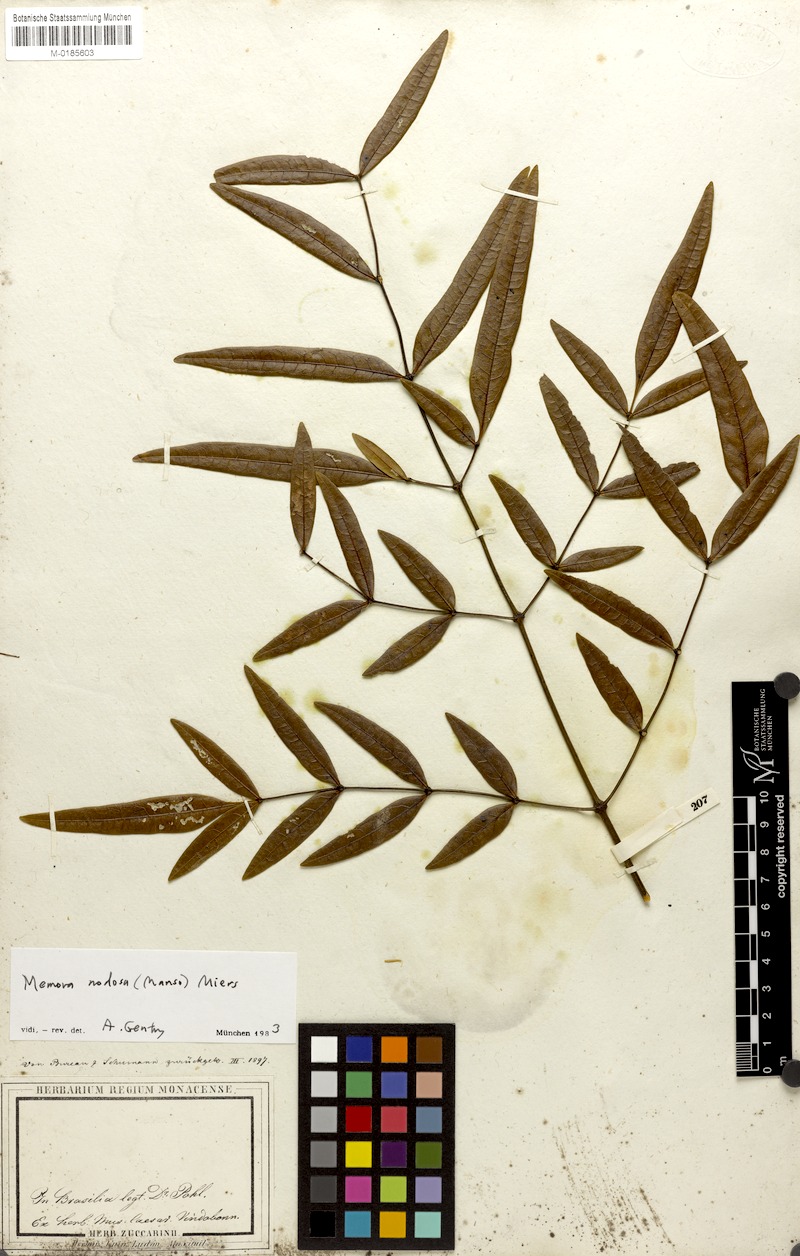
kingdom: Plantae
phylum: Tracheophyta
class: Magnoliopsida
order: Lamiales
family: Bignoniaceae
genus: Adenocalymma
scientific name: Adenocalymma nodosum
